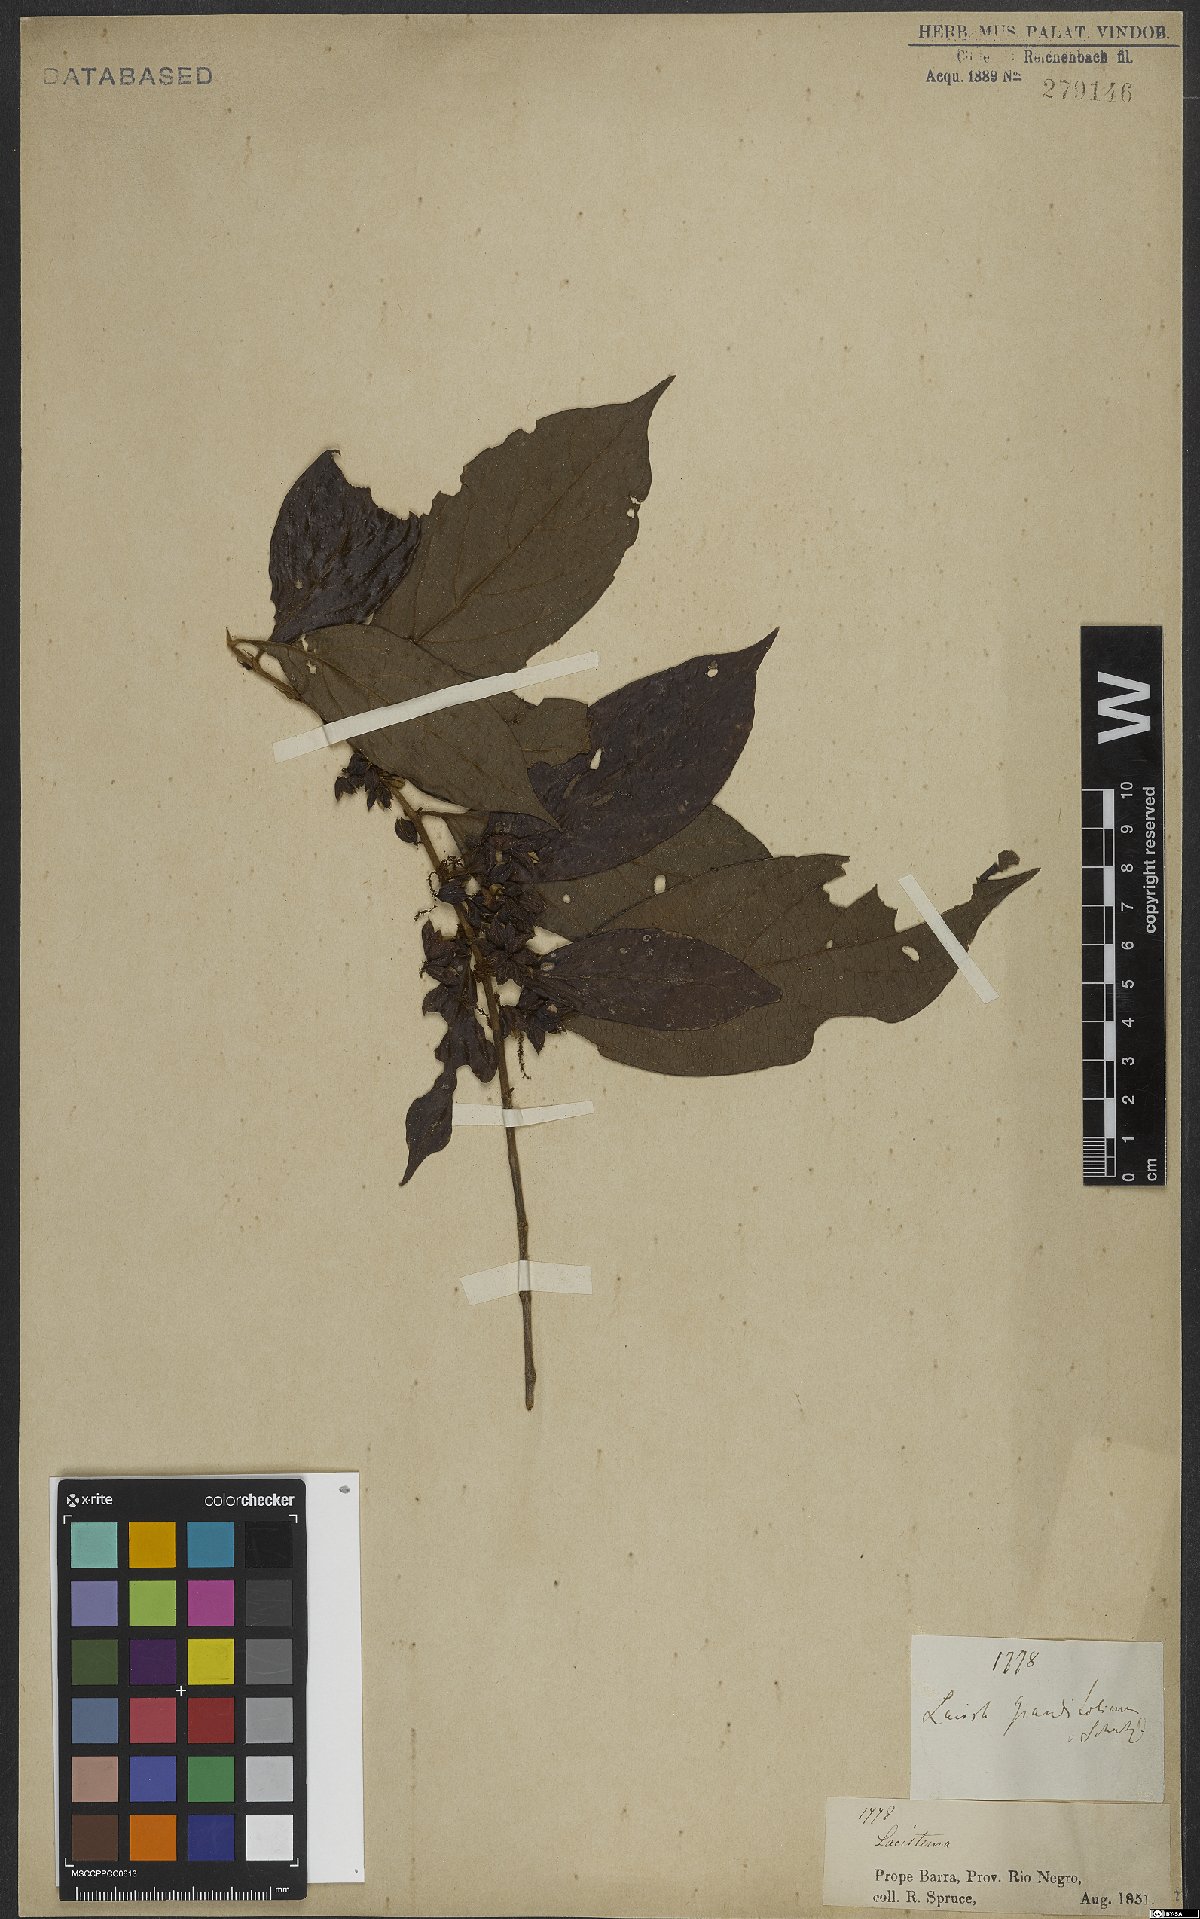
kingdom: Plantae
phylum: Tracheophyta
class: Magnoliopsida
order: Malpighiales
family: Lacistemataceae
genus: Lacistema
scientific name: Lacistema grandifolium
